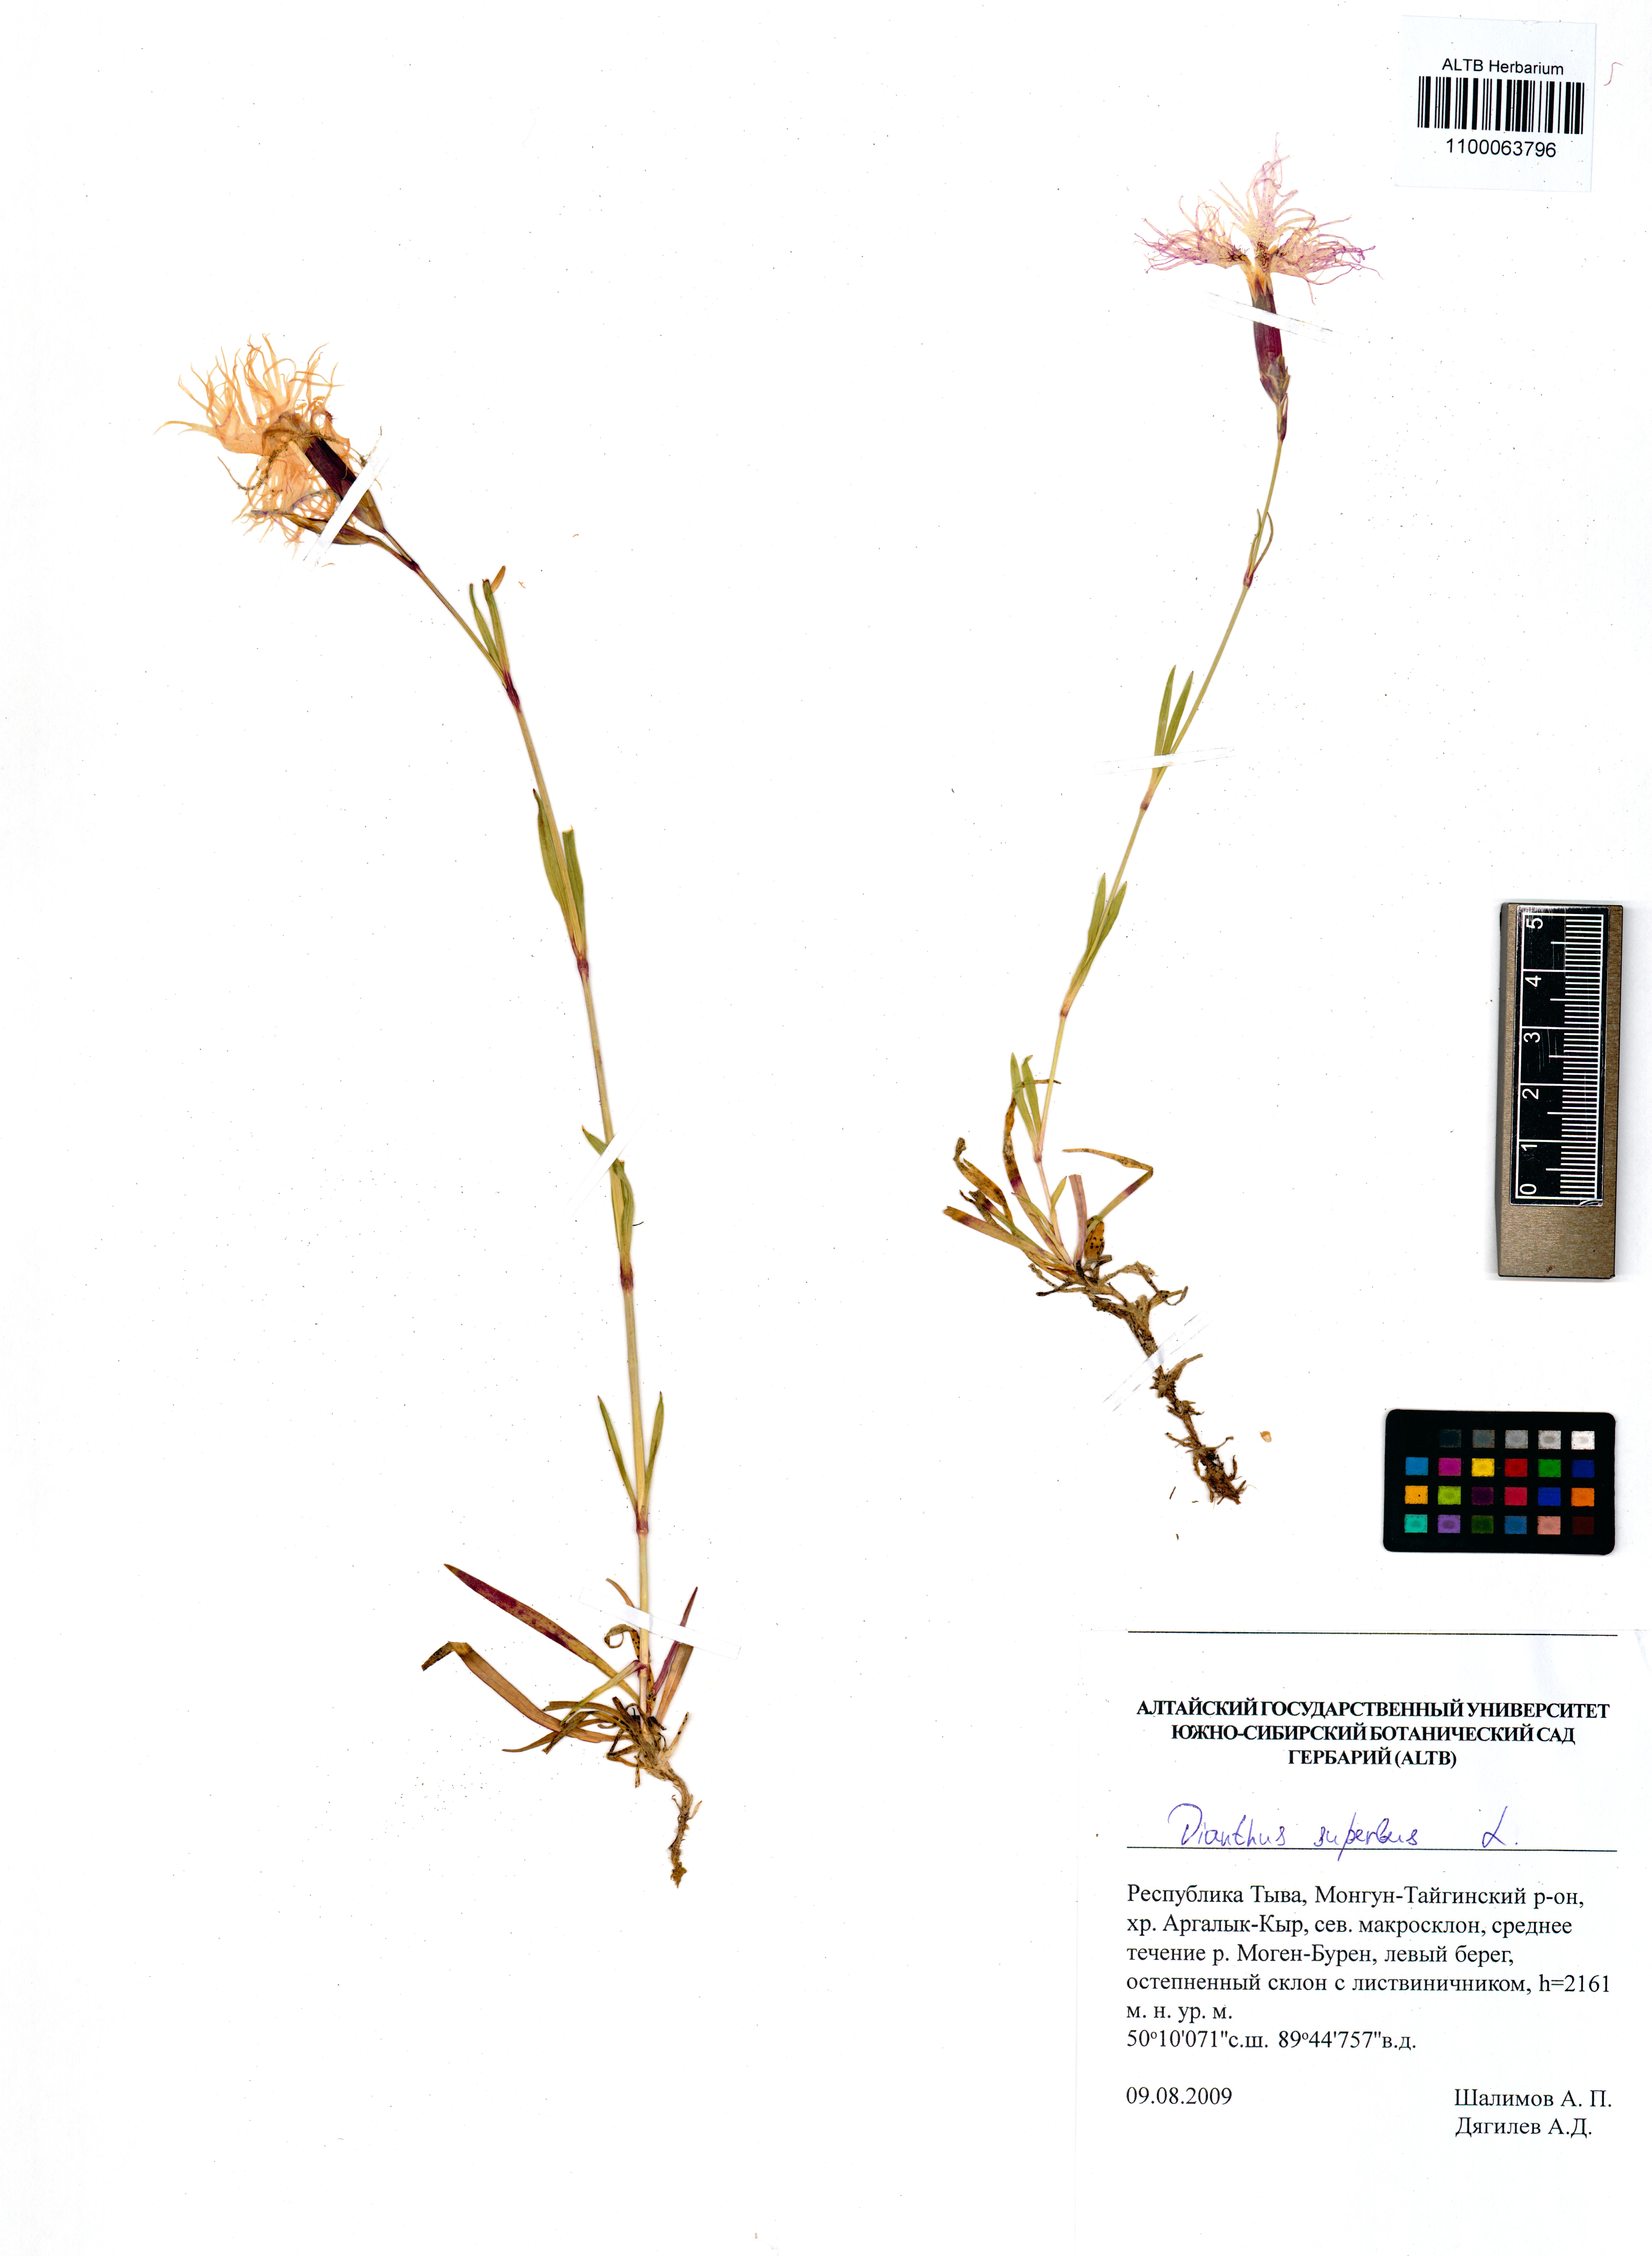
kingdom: Plantae
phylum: Tracheophyta
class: Magnoliopsida
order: Caryophyllales
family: Caryophyllaceae
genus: Dianthus
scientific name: Dianthus superbus
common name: Fringed pink
